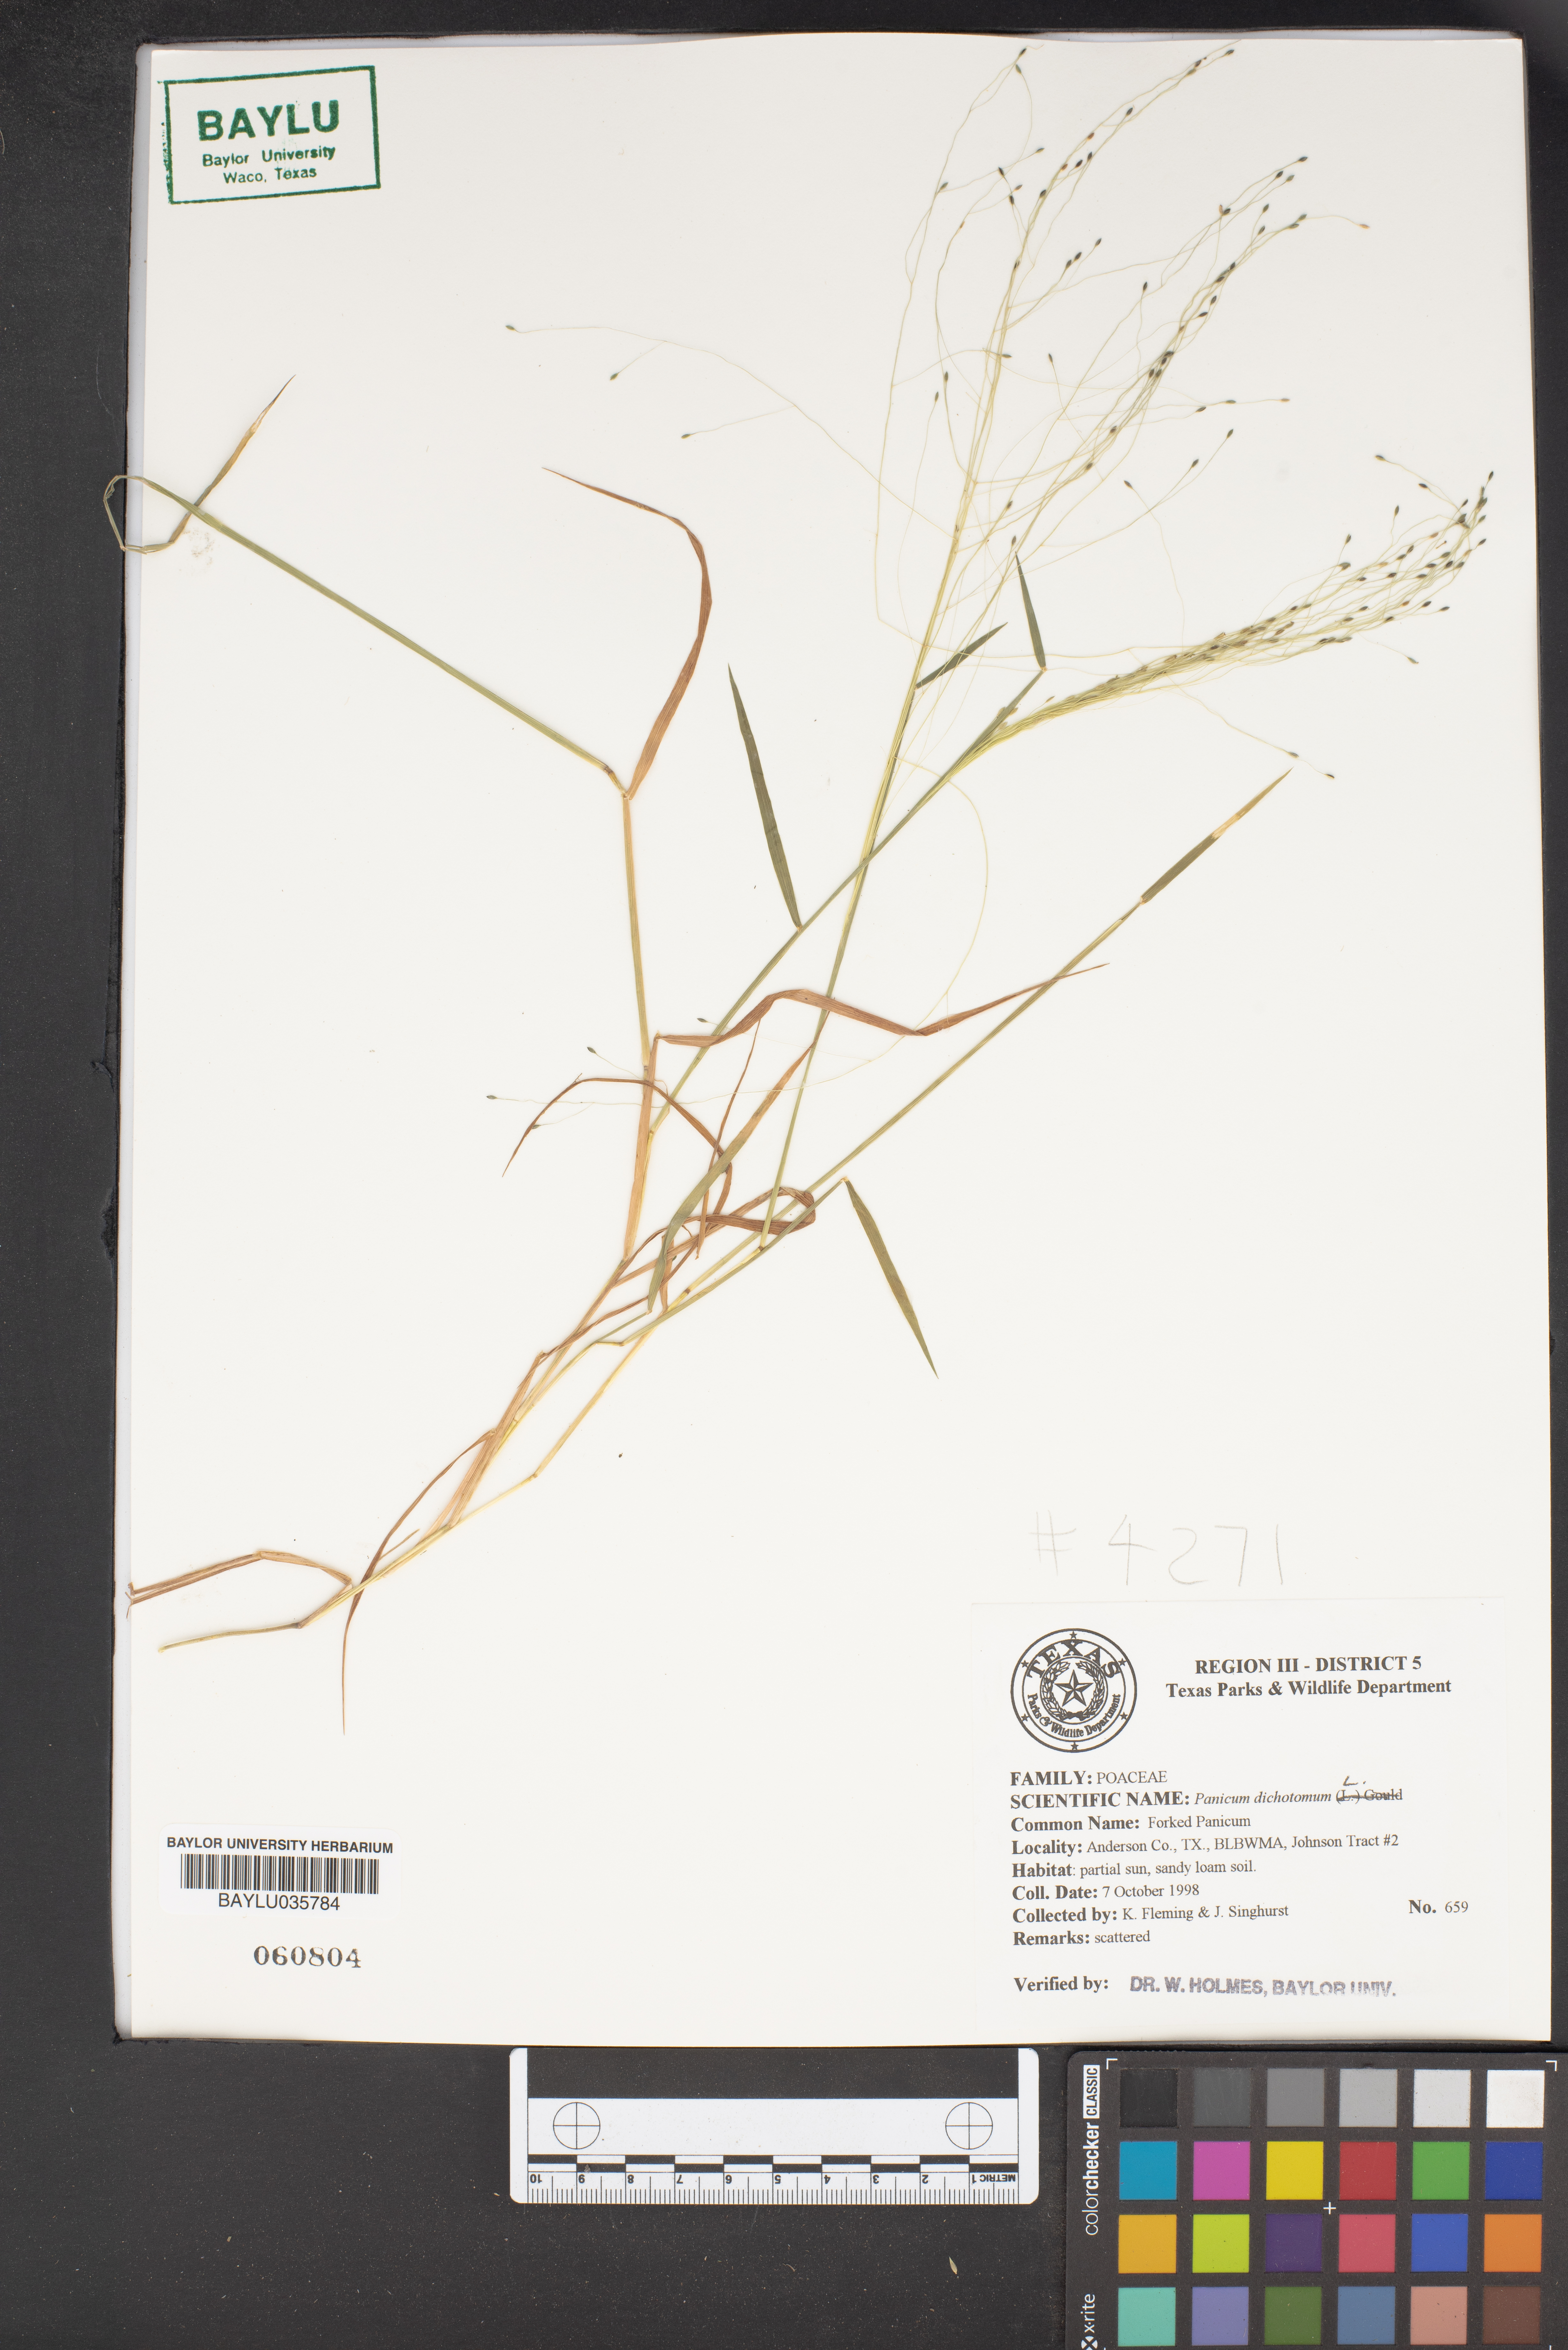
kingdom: Plantae
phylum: Tracheophyta
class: Liliopsida
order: Poales
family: Poaceae
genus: Dichanthelium
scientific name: Dichanthelium dichotomum
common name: Cypress panicgrass
